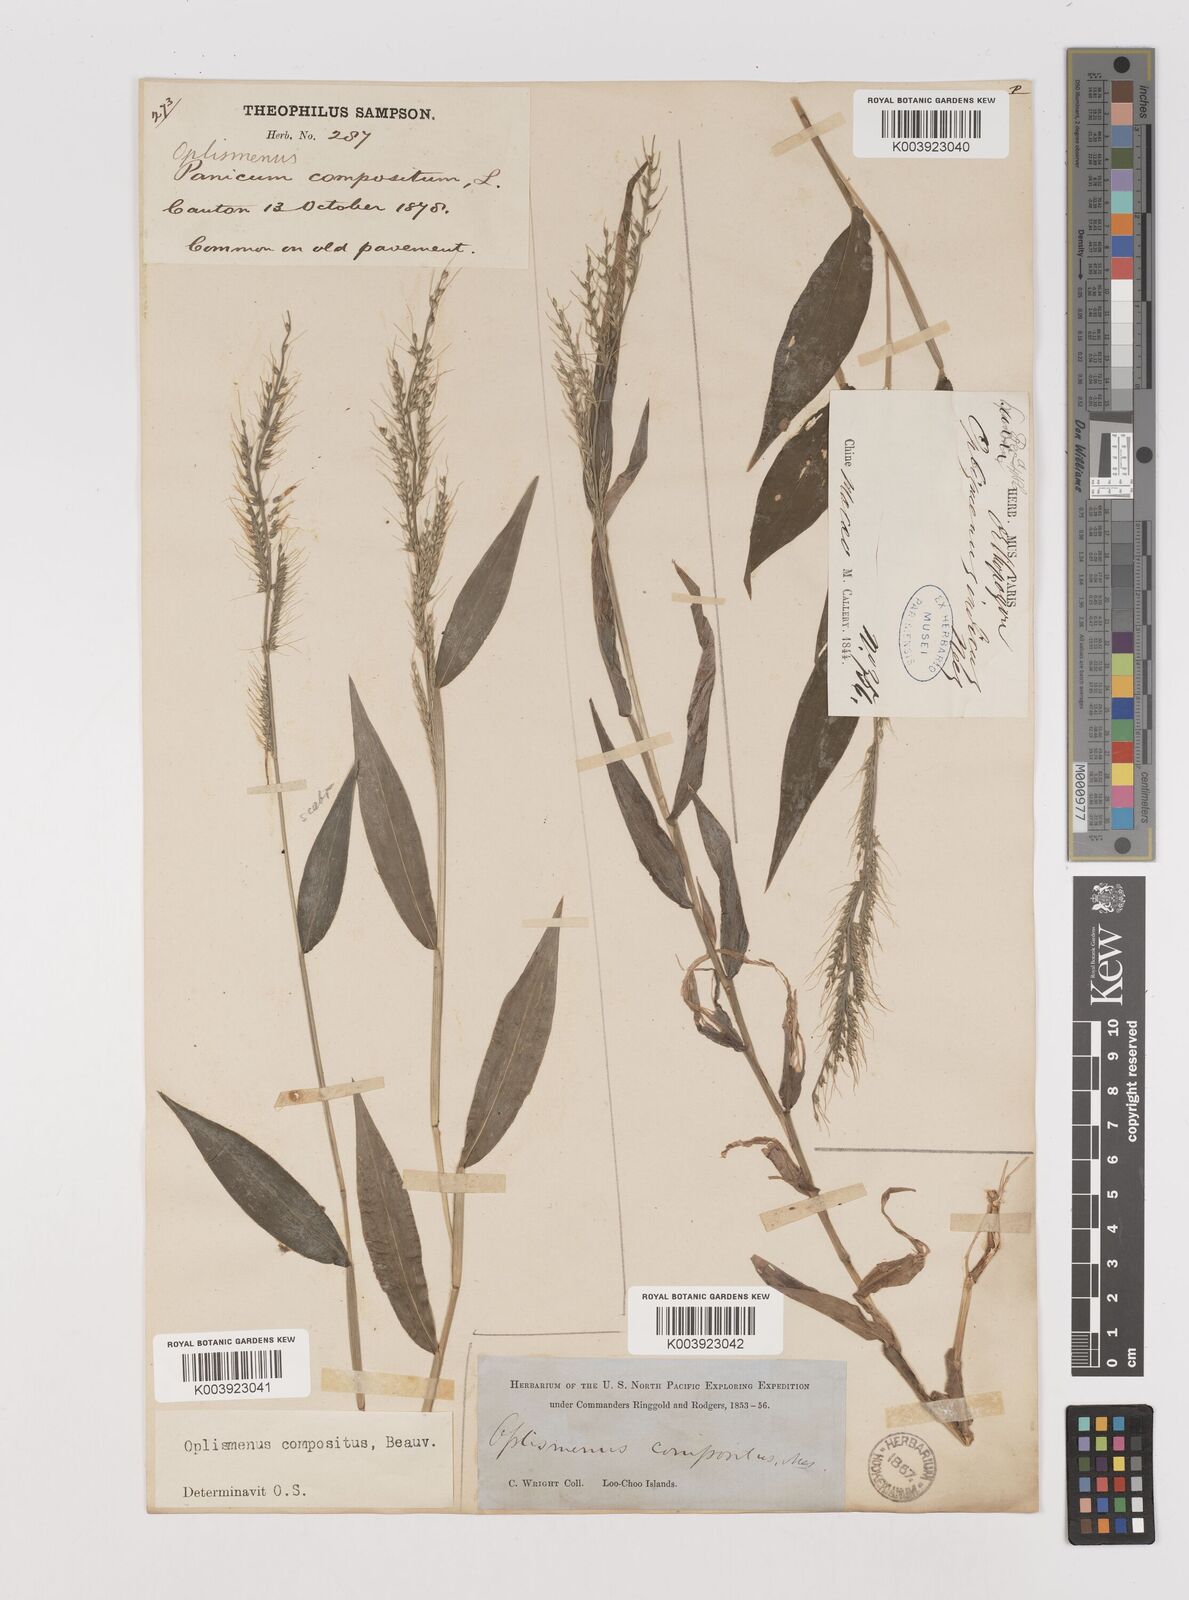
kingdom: Plantae
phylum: Tracheophyta
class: Liliopsida
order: Poales
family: Poaceae
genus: Oplismenus
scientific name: Oplismenus compositus
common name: Running mountain grass
